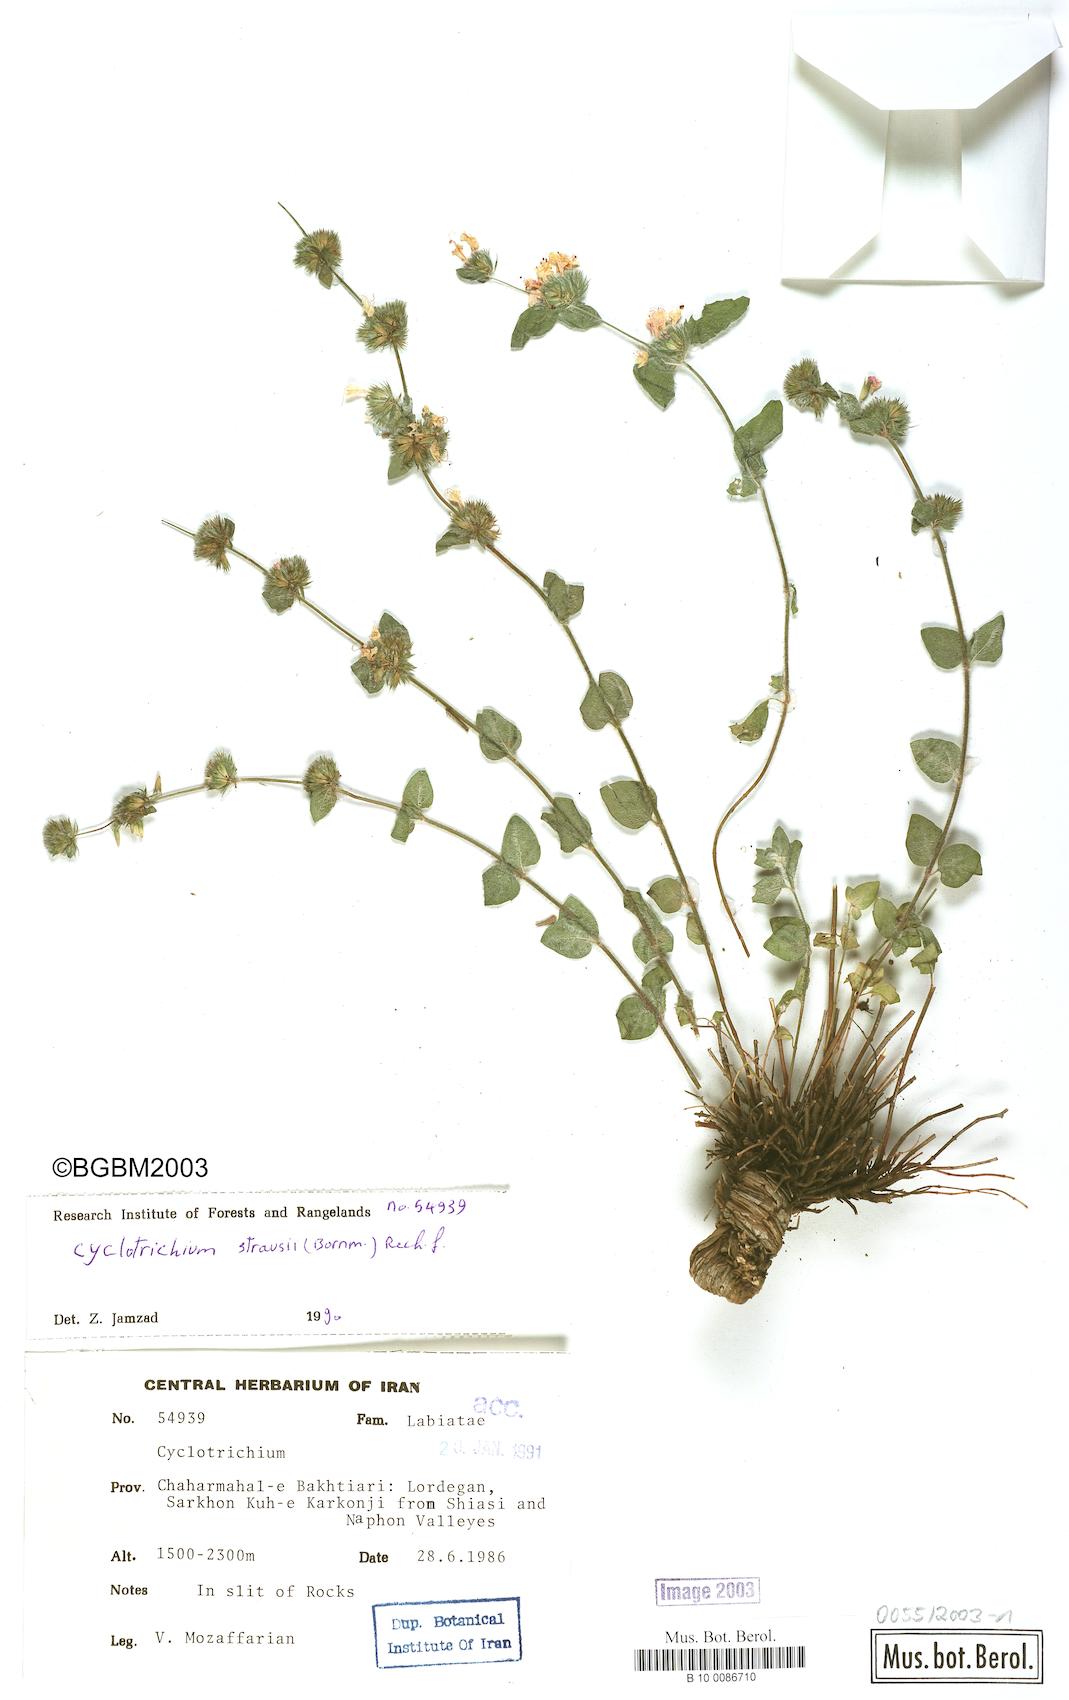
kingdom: Plantae
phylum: Tracheophyta
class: Magnoliopsida
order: Lamiales
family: Lamiaceae
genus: Cyclotrichium
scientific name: Cyclotrichium straussii
